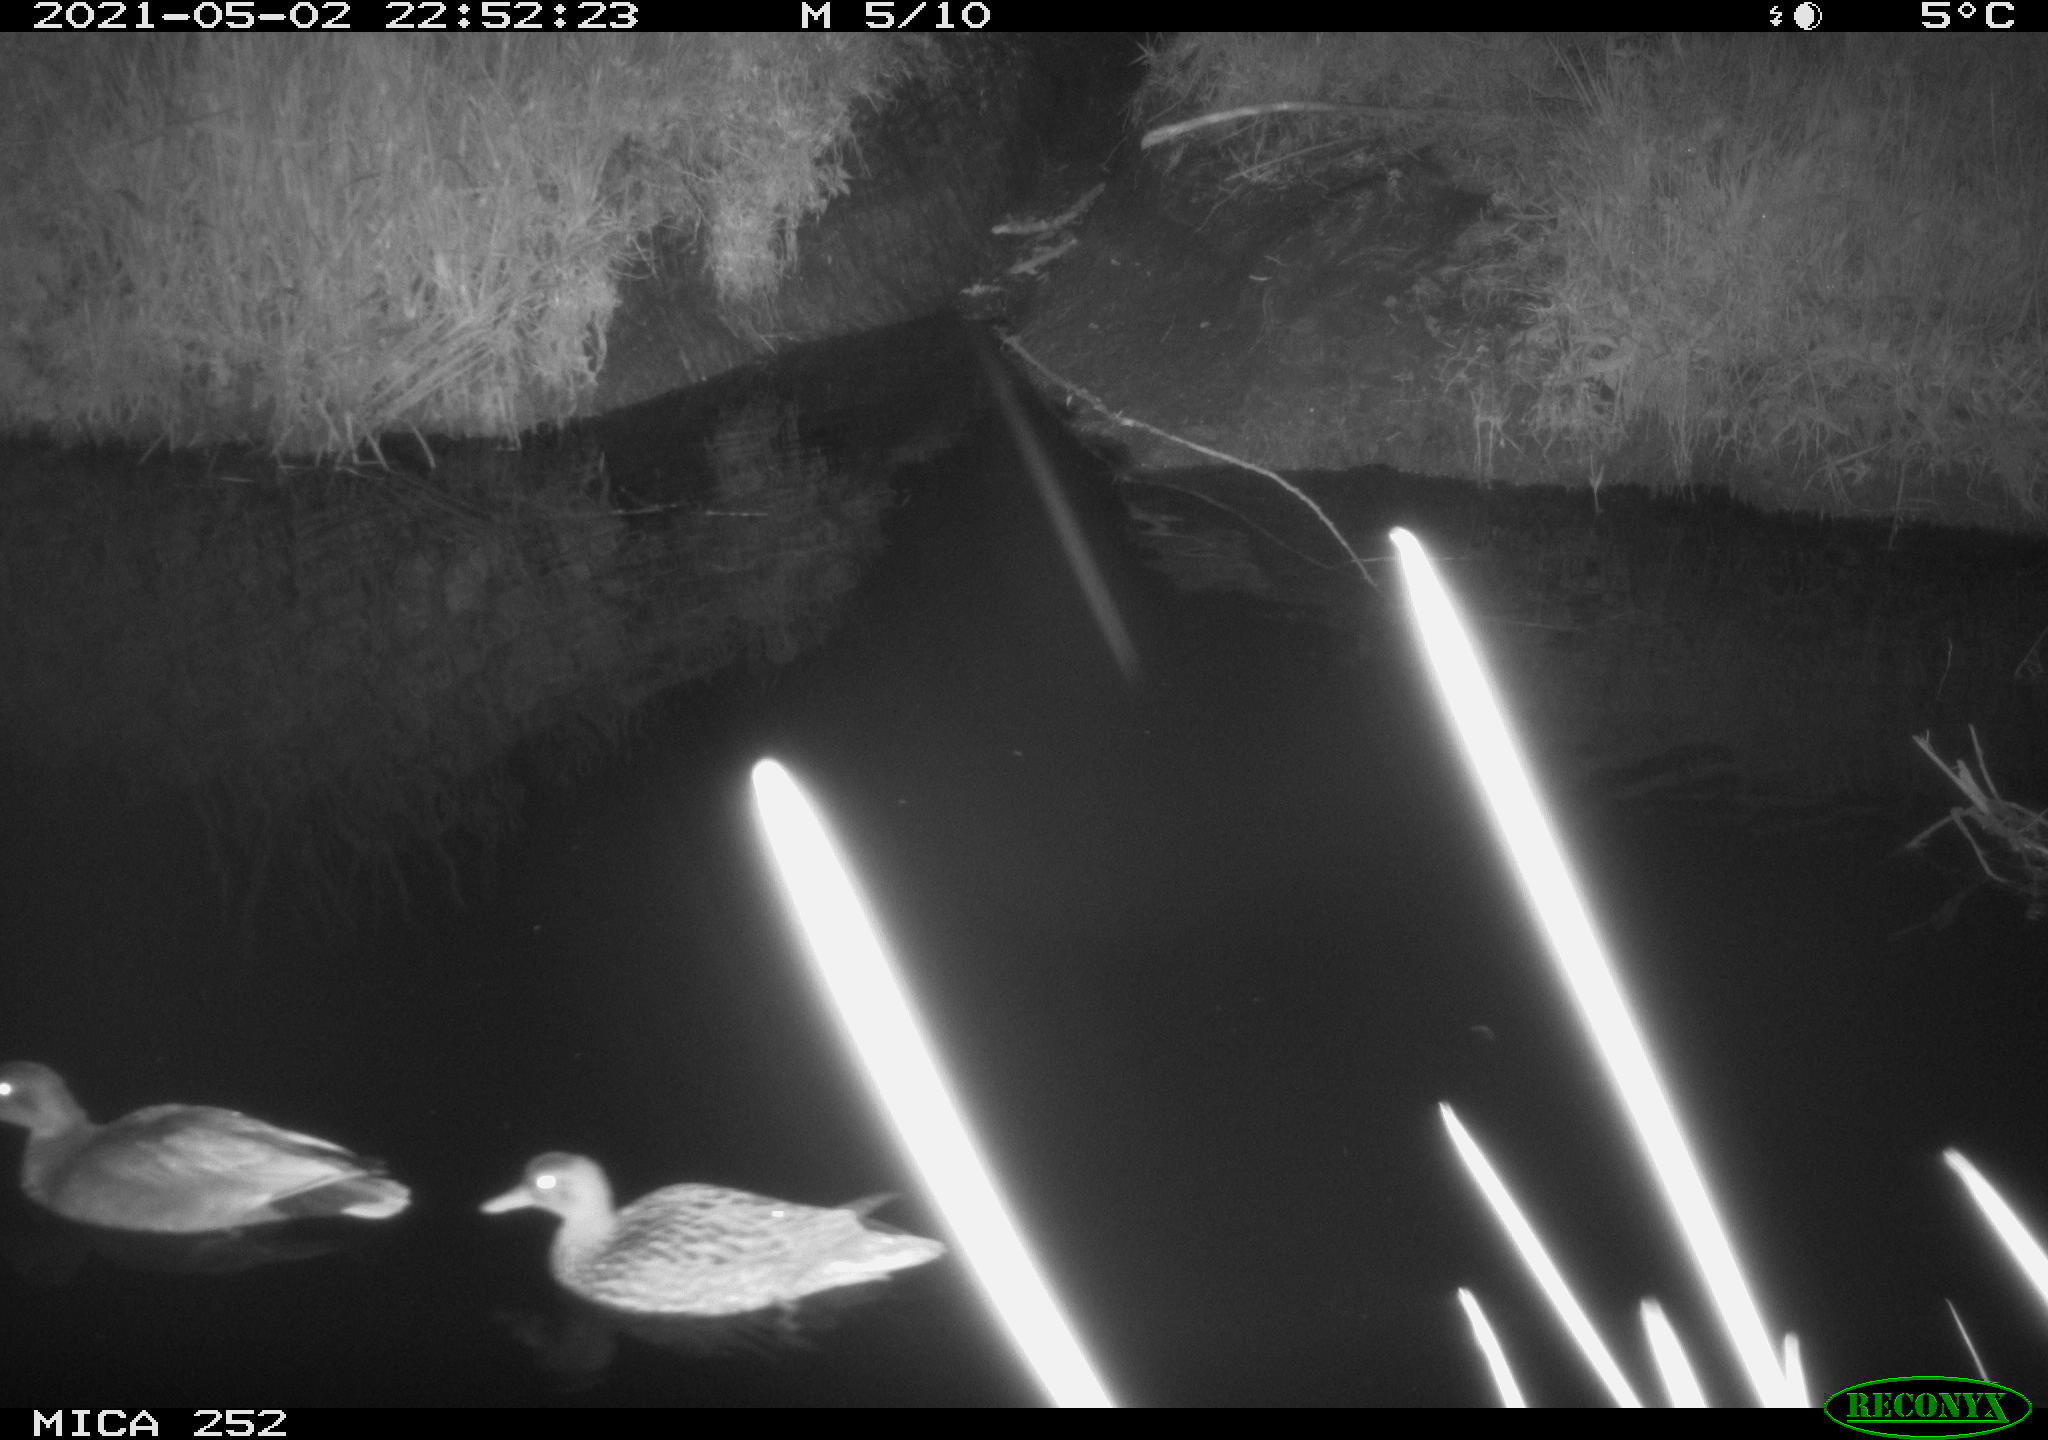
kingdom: Animalia
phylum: Chordata
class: Aves
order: Anseriformes
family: Anatidae
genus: Anas
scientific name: Anas
